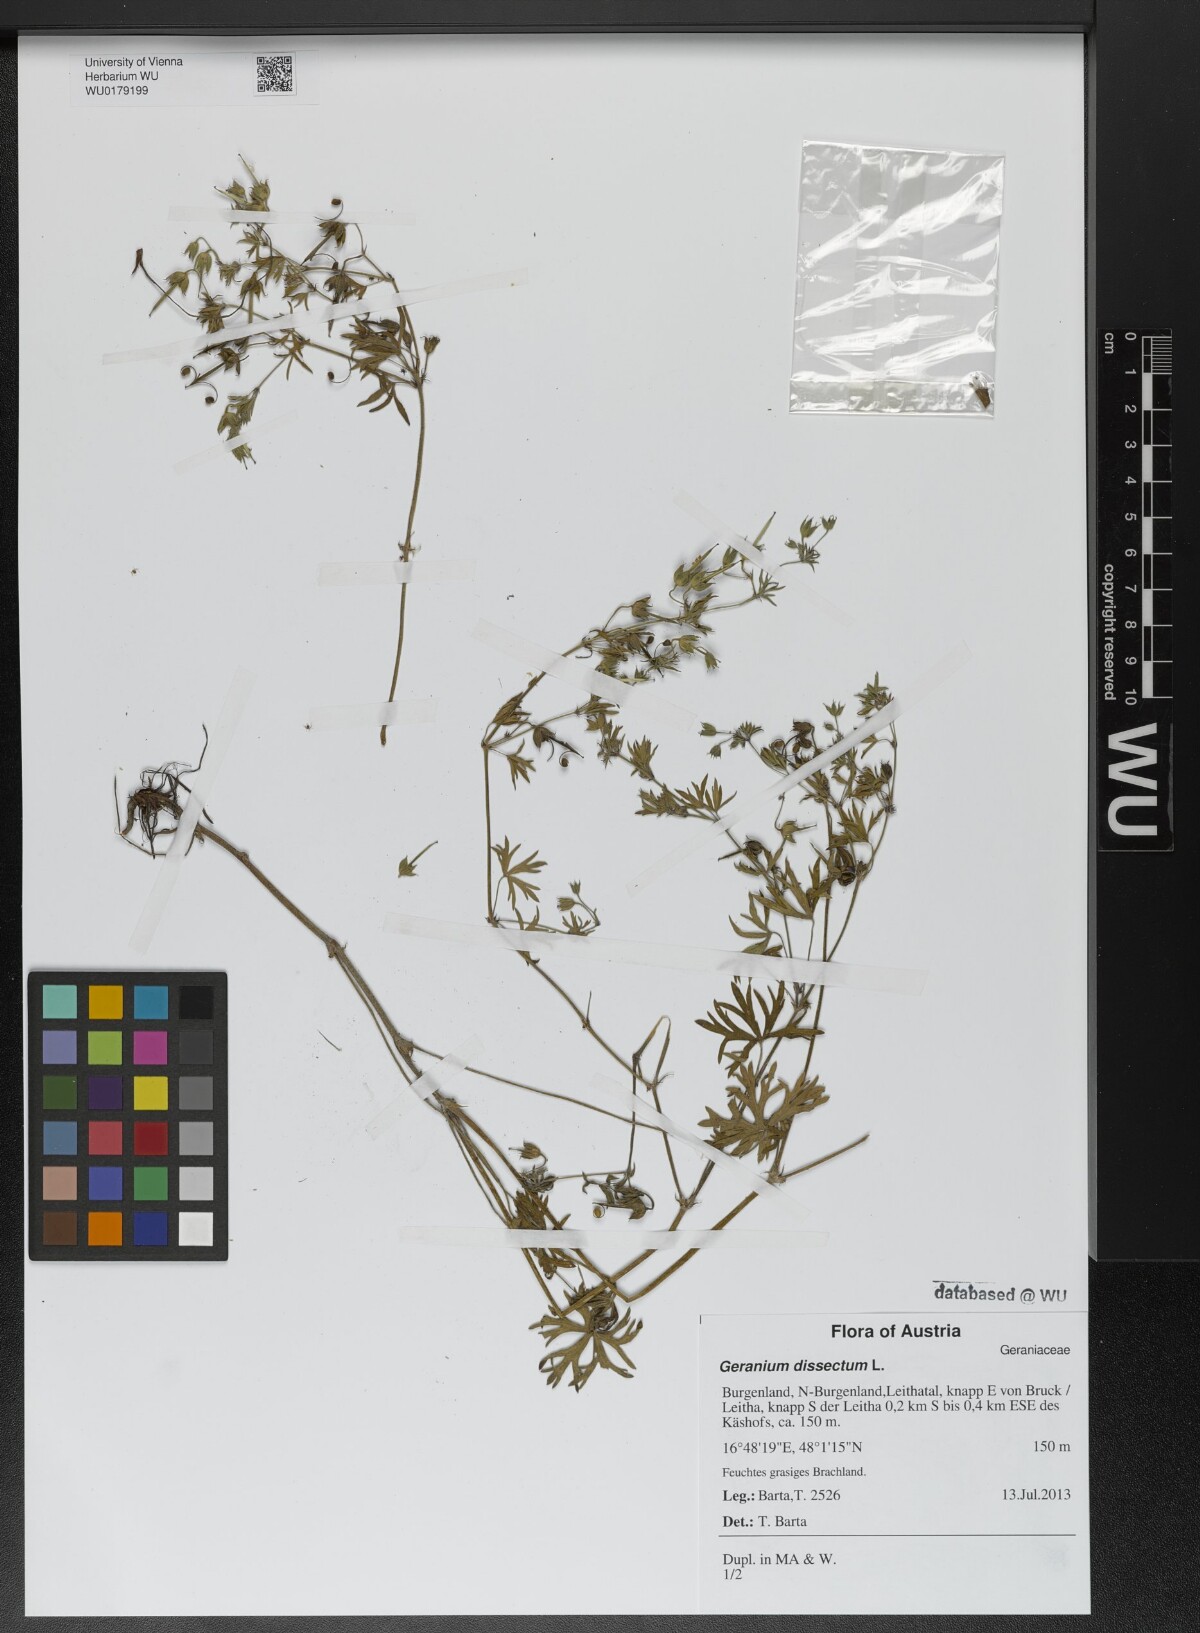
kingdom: Plantae
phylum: Tracheophyta
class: Magnoliopsida
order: Geraniales
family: Geraniaceae
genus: Geranium
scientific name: Geranium dissectum
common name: Cut-leaved crane's-bill
